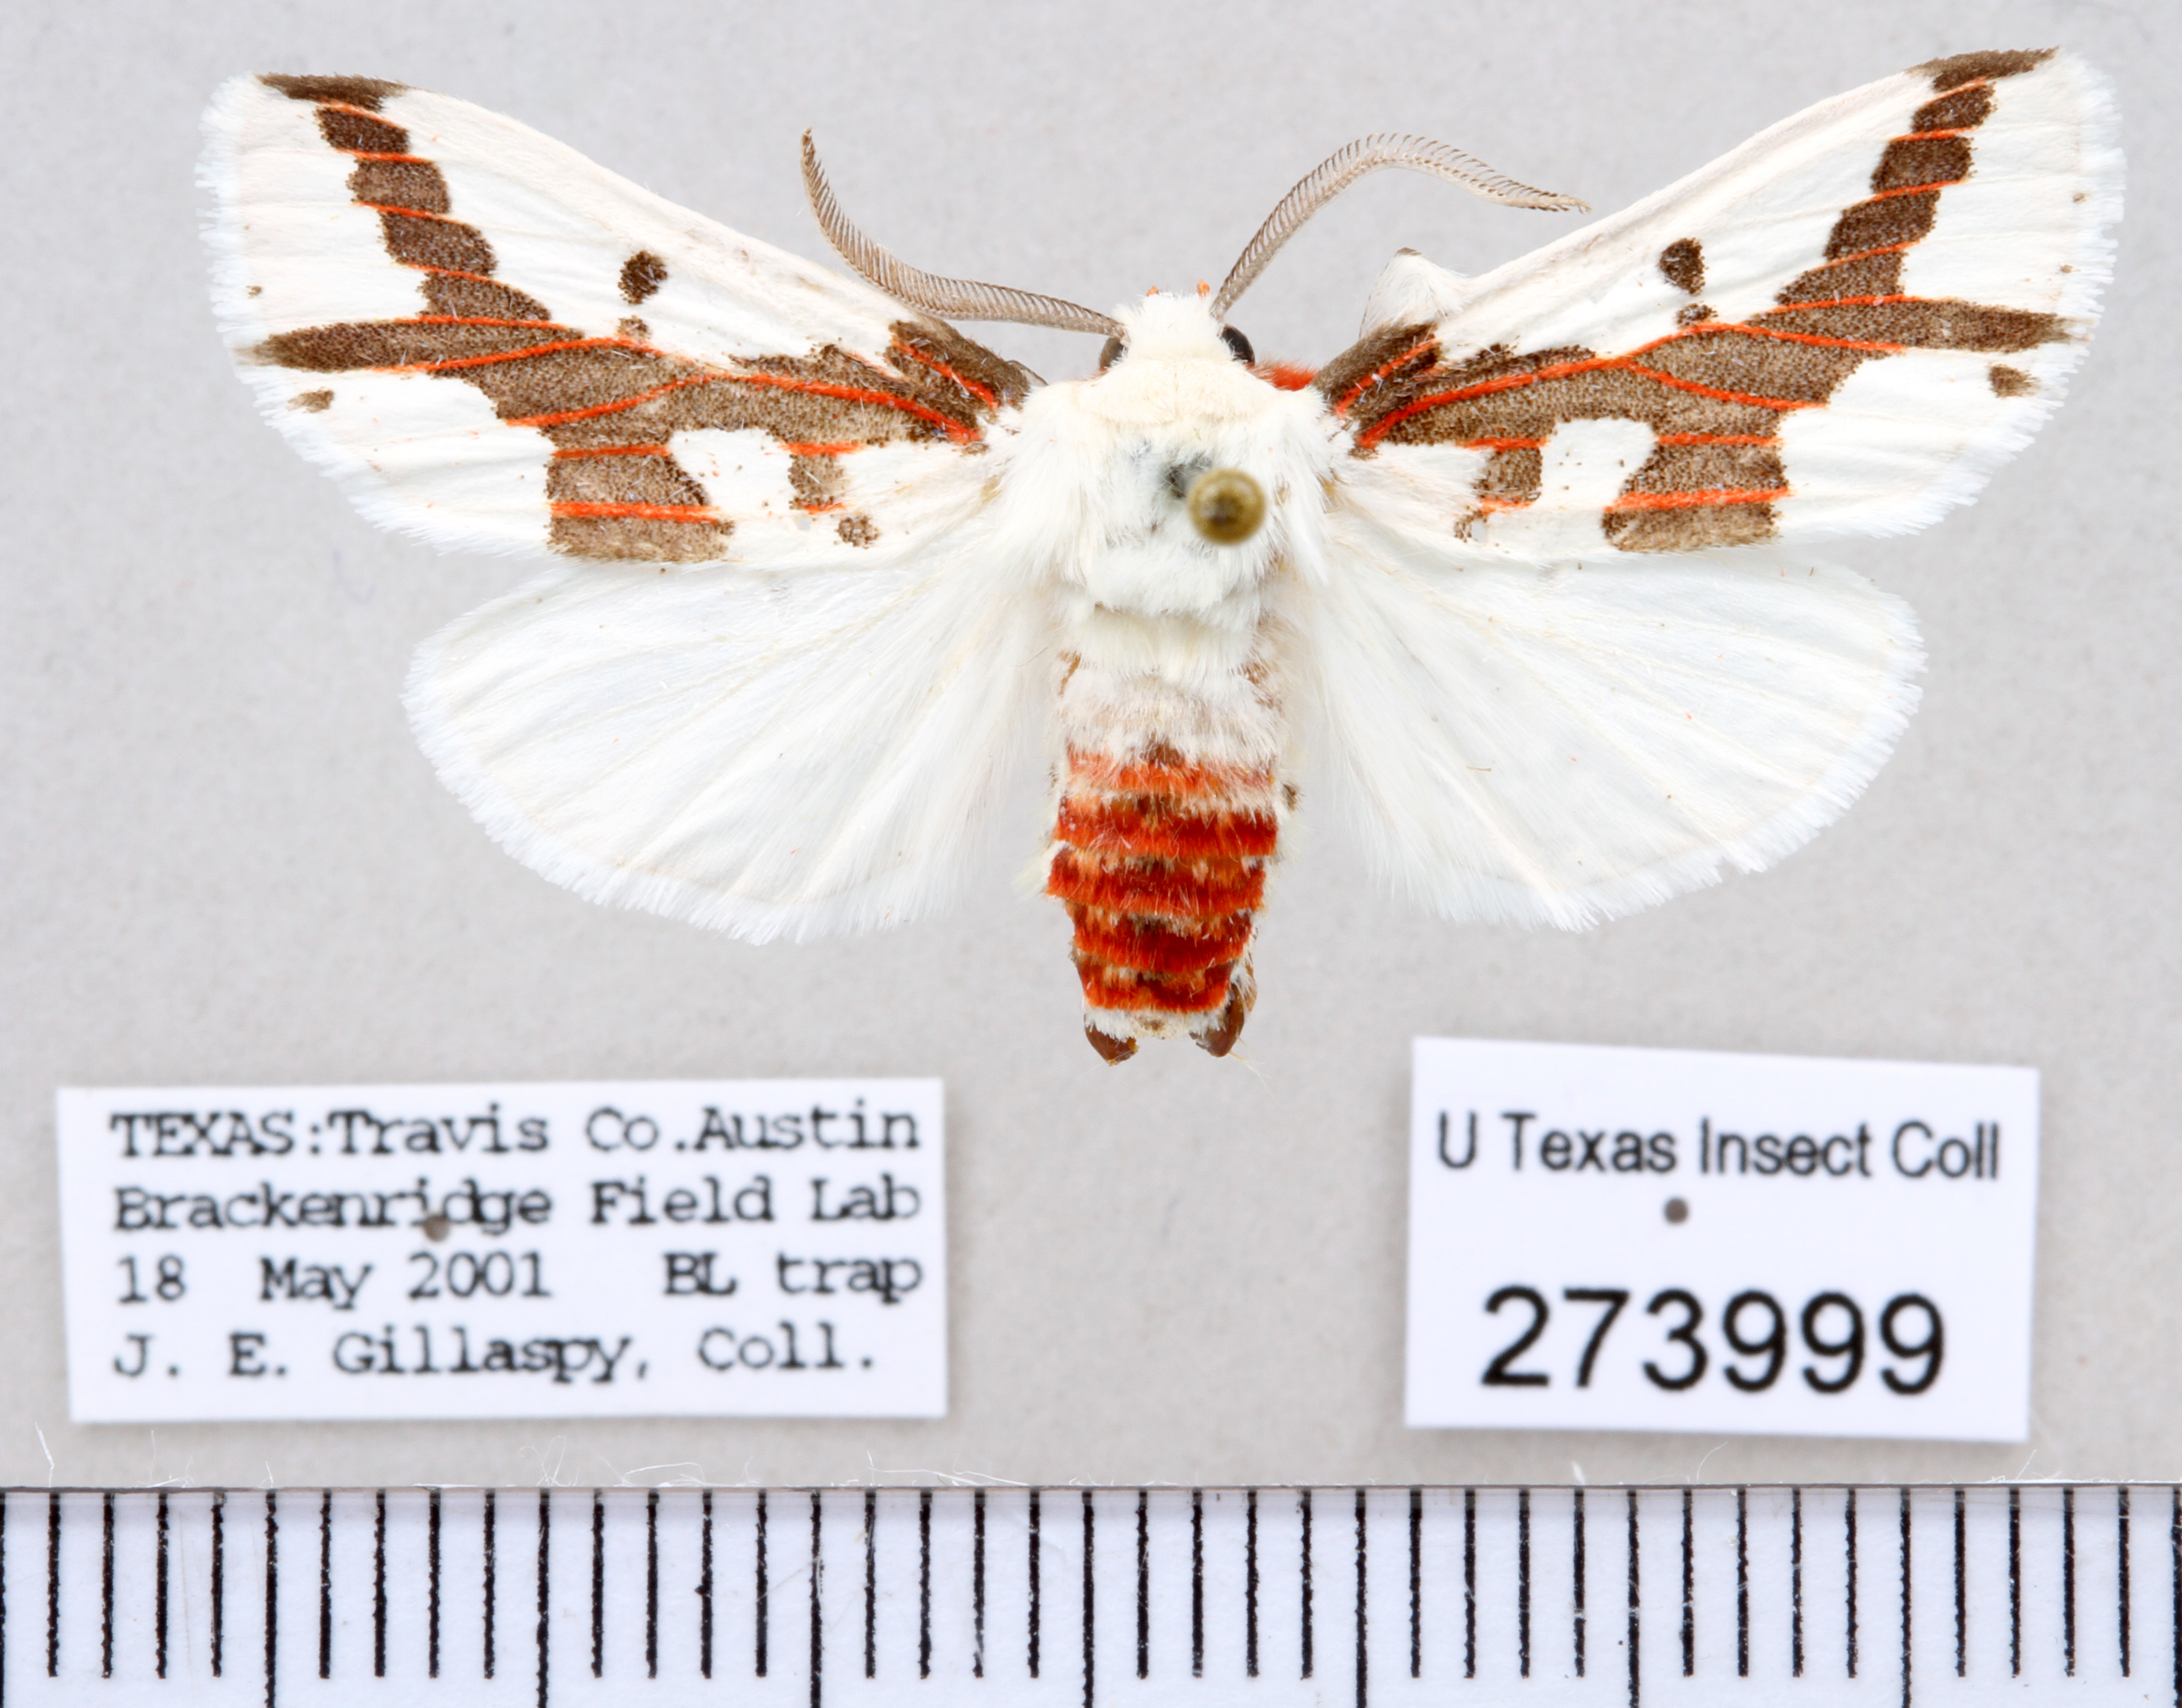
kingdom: Animalia
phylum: Arthropoda
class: Insecta
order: Lepidoptera
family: Erebidae
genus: Euerythra
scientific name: Euerythra phasma
